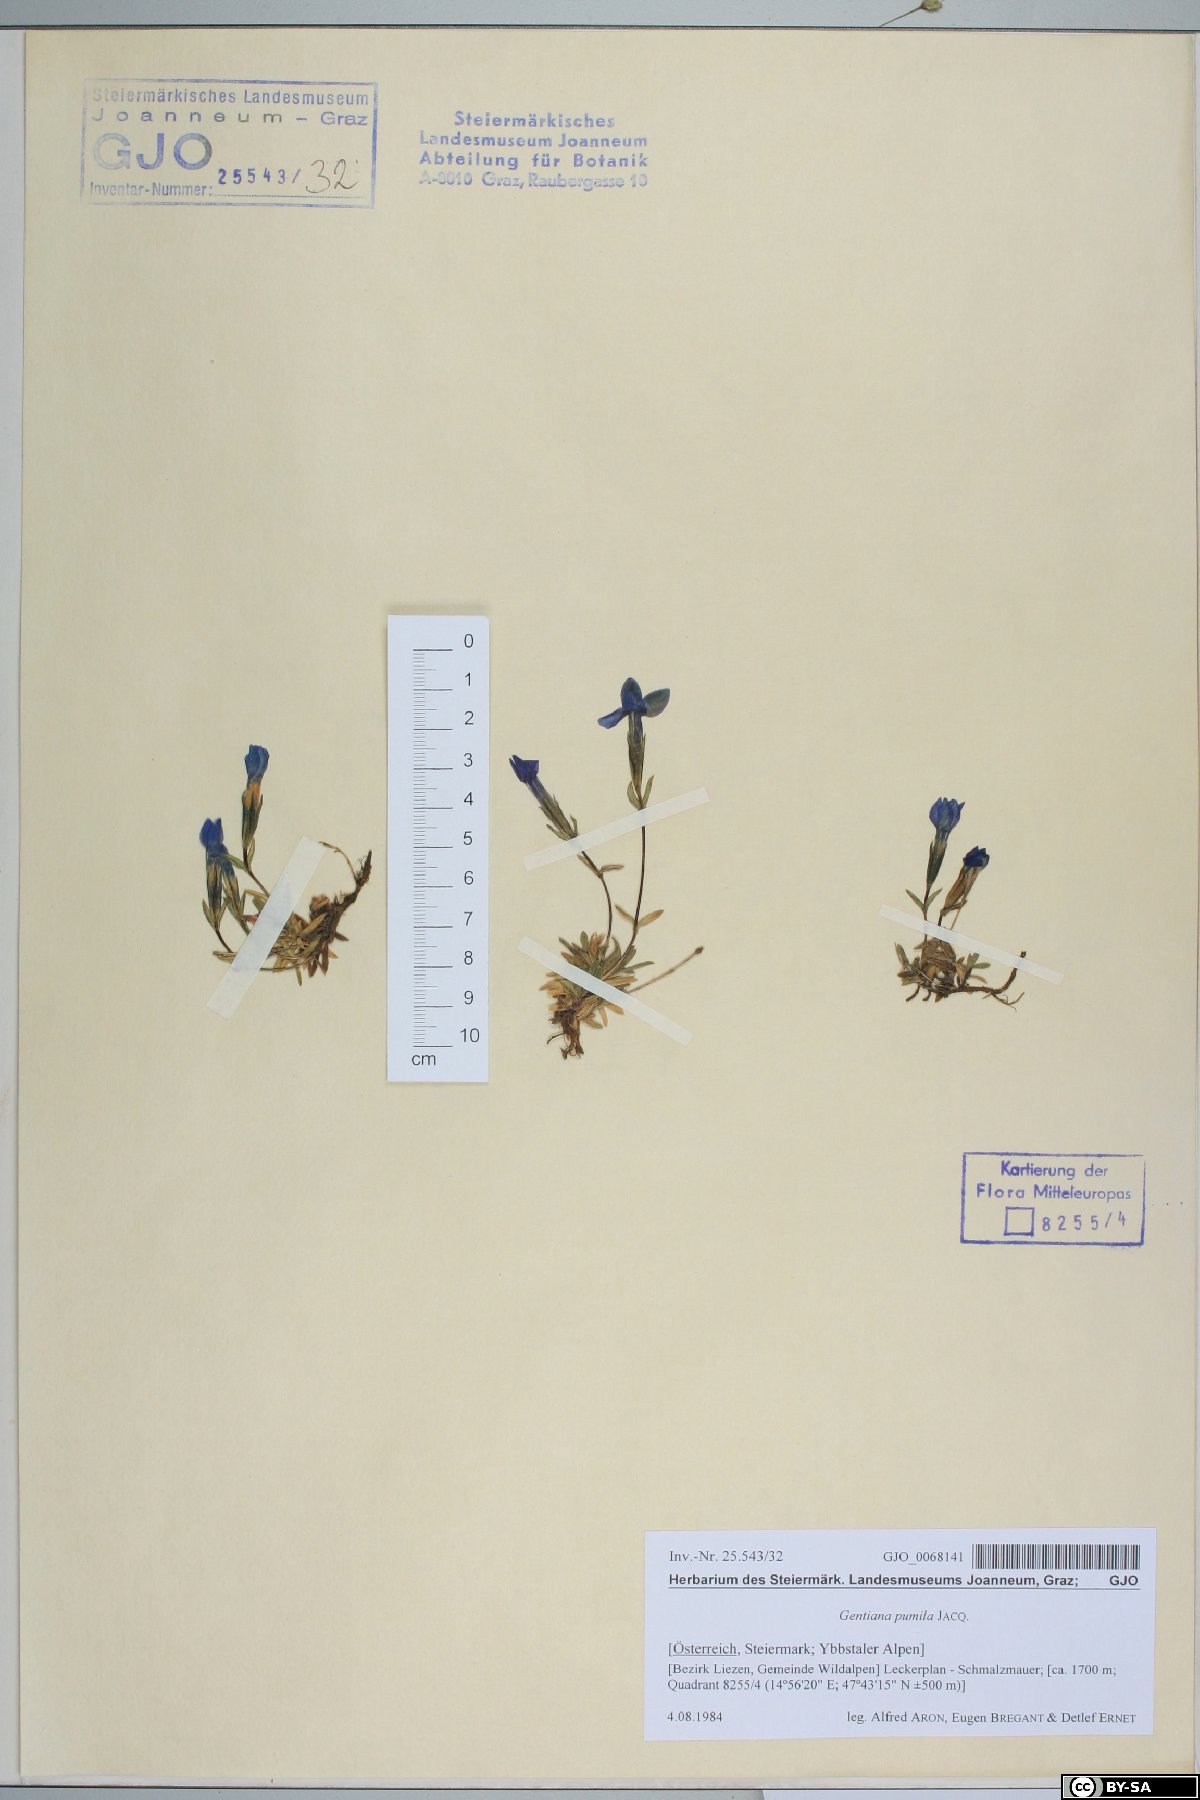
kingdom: Plantae
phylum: Tracheophyta
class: Magnoliopsida
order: Gentianales
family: Gentianaceae
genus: Gentiana
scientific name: Gentiana pumila
